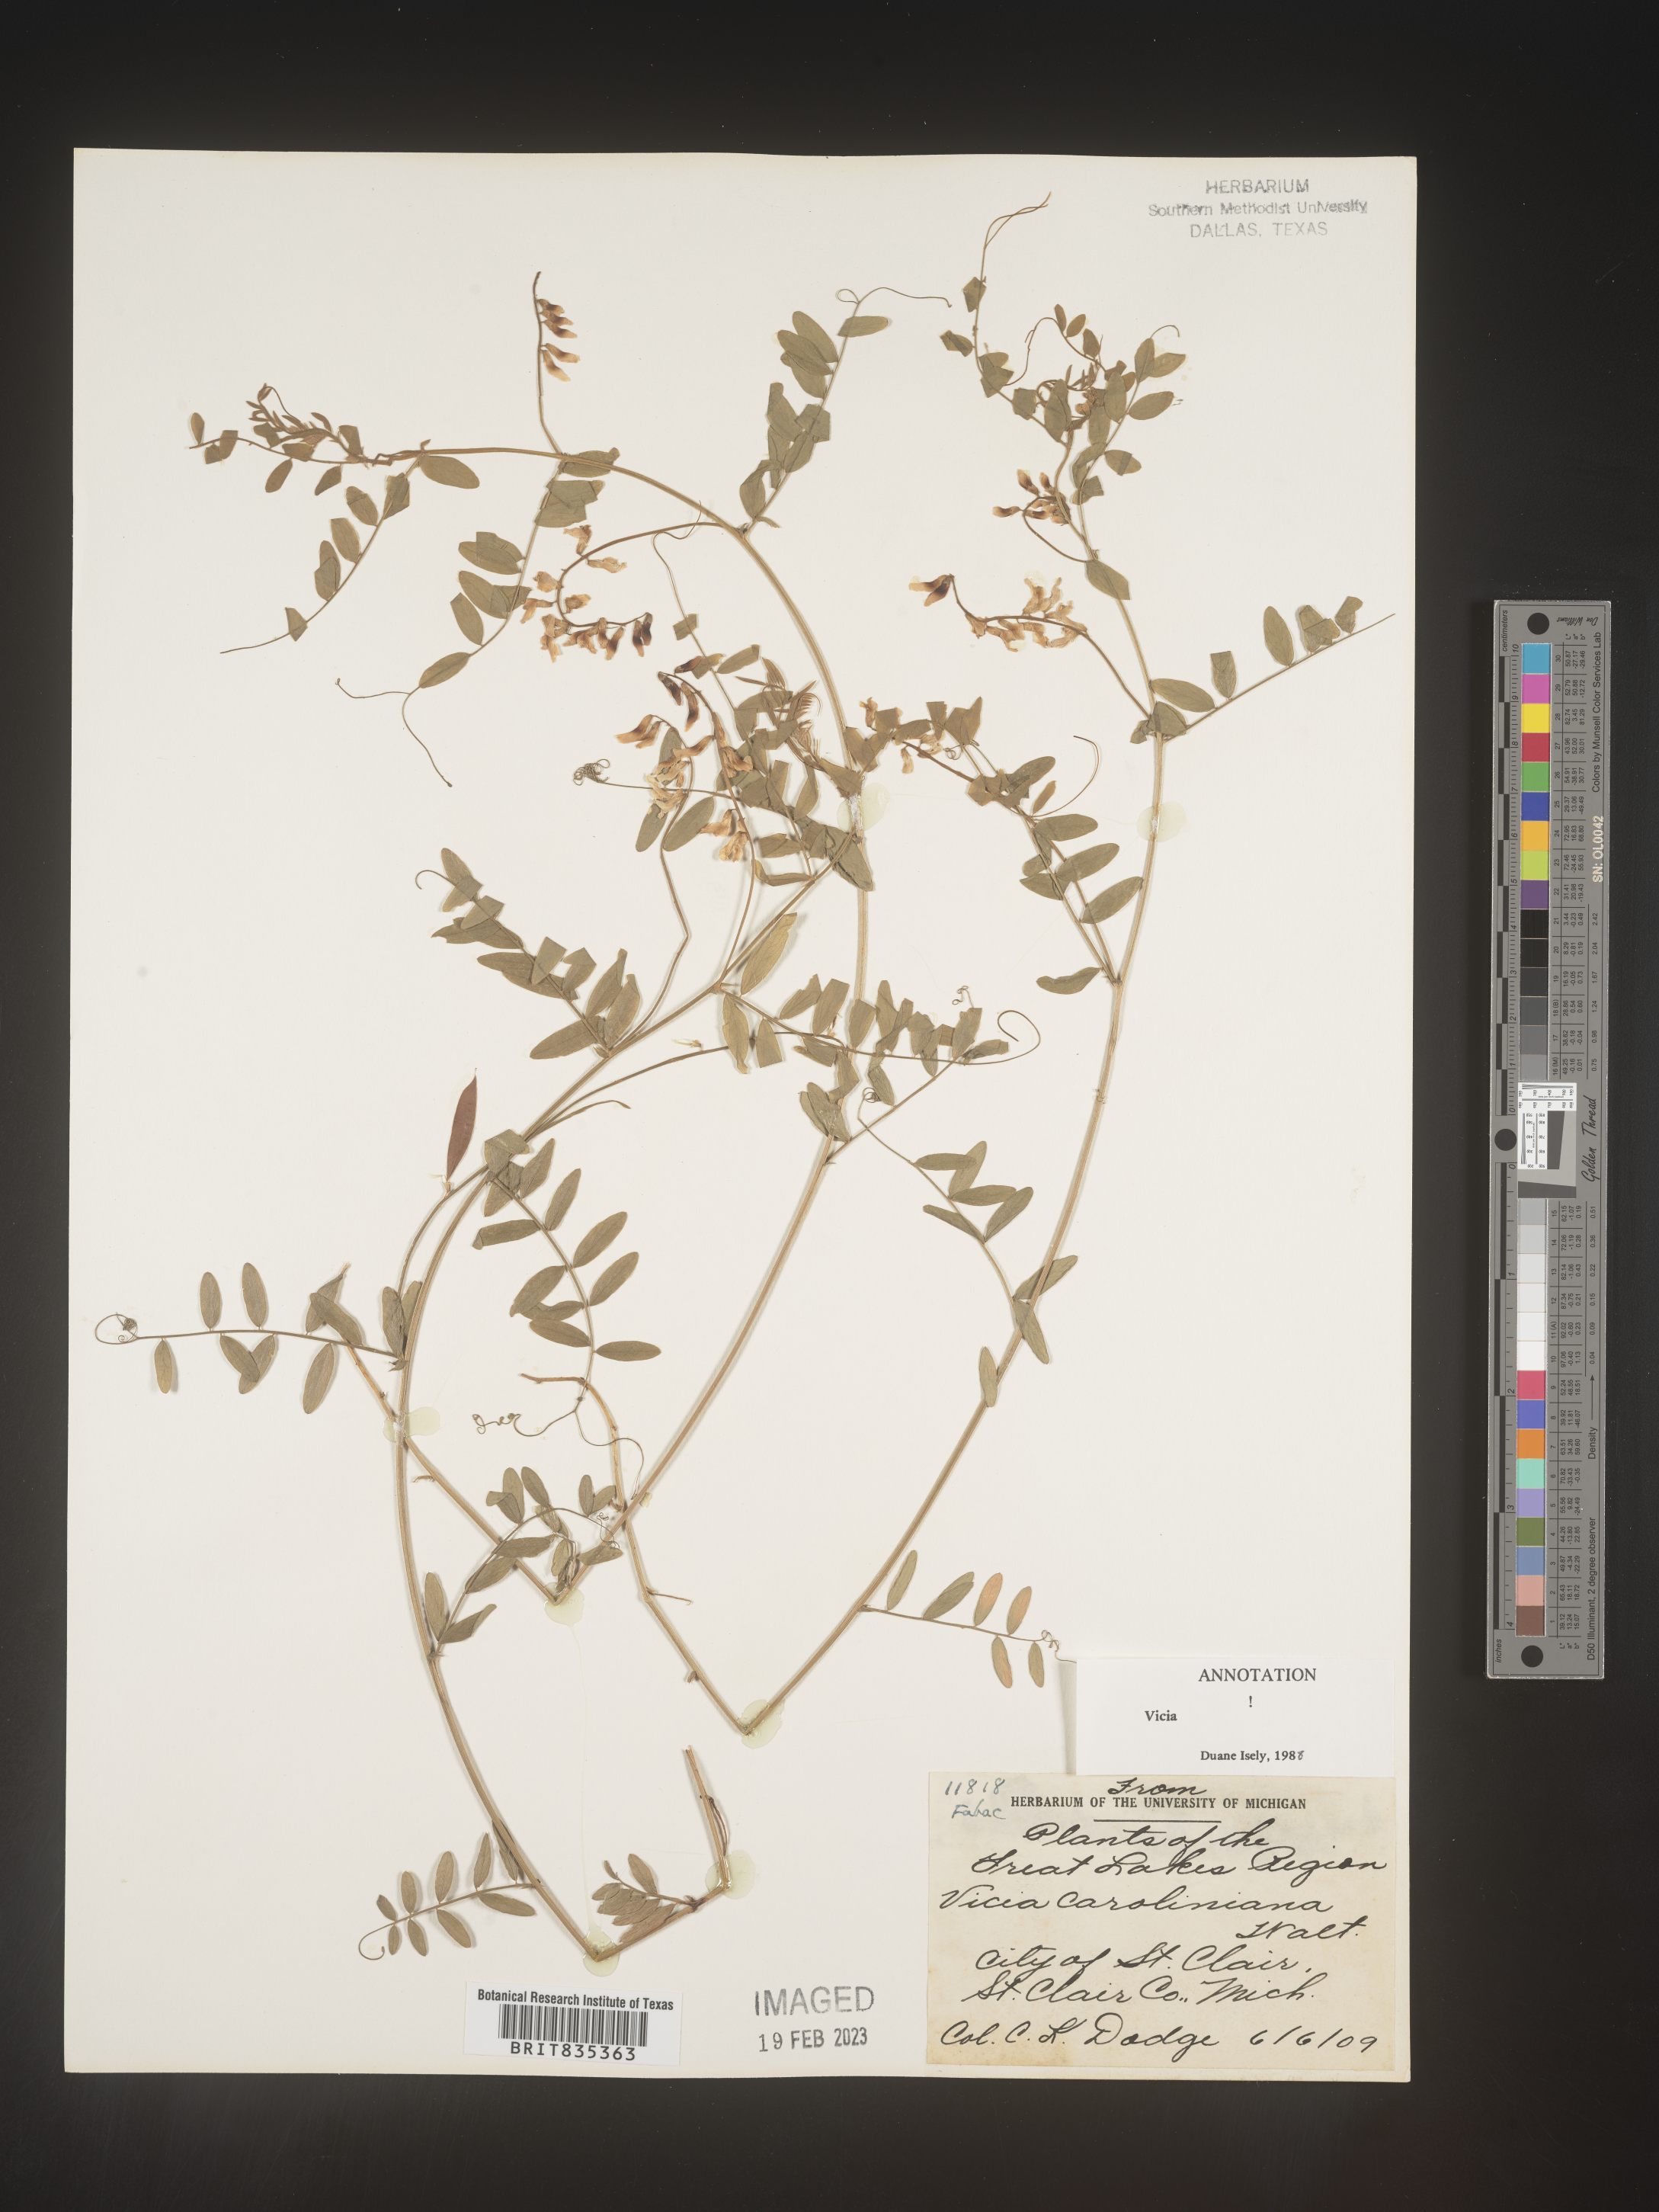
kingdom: Plantae
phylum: Tracheophyta
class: Magnoliopsida
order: Fabales
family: Fabaceae
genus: Vicia
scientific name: Vicia caroliniana
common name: Carolina vetch
